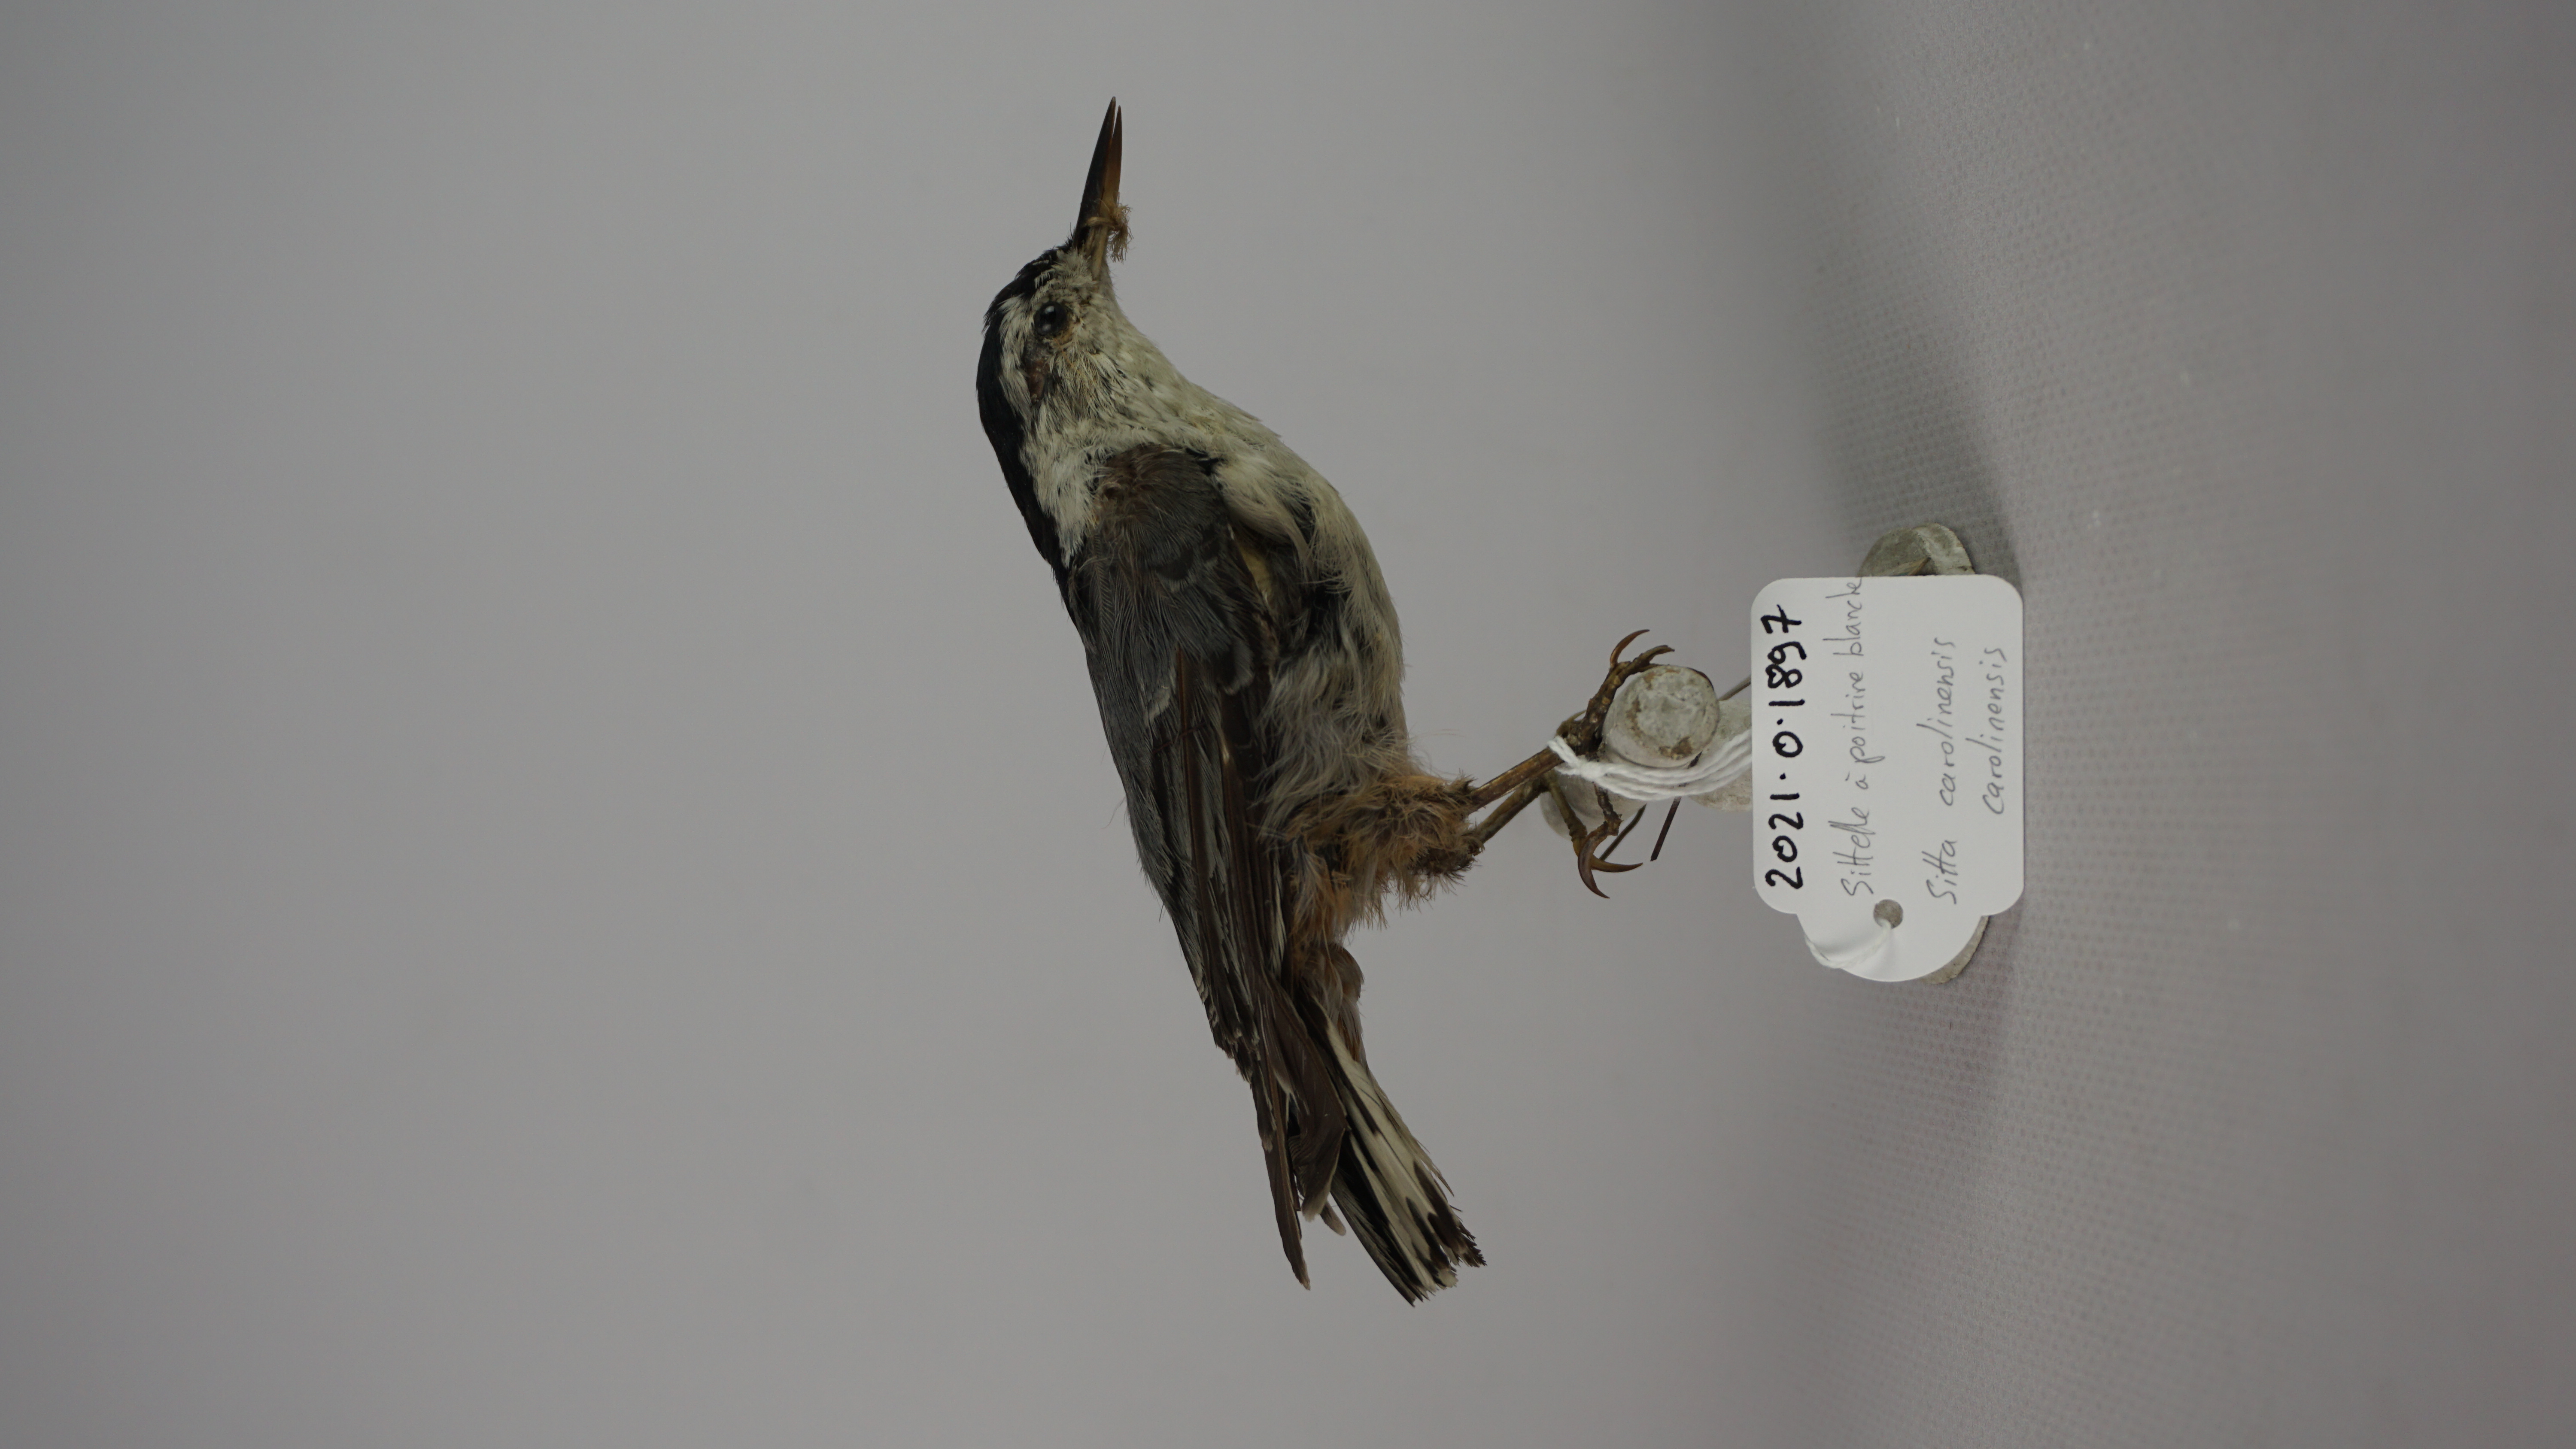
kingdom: Animalia
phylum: Chordata
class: Aves
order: Passeriformes
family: Sittidae
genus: Sitta
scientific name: Sitta carolinensis
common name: White-breasted nuthatch
